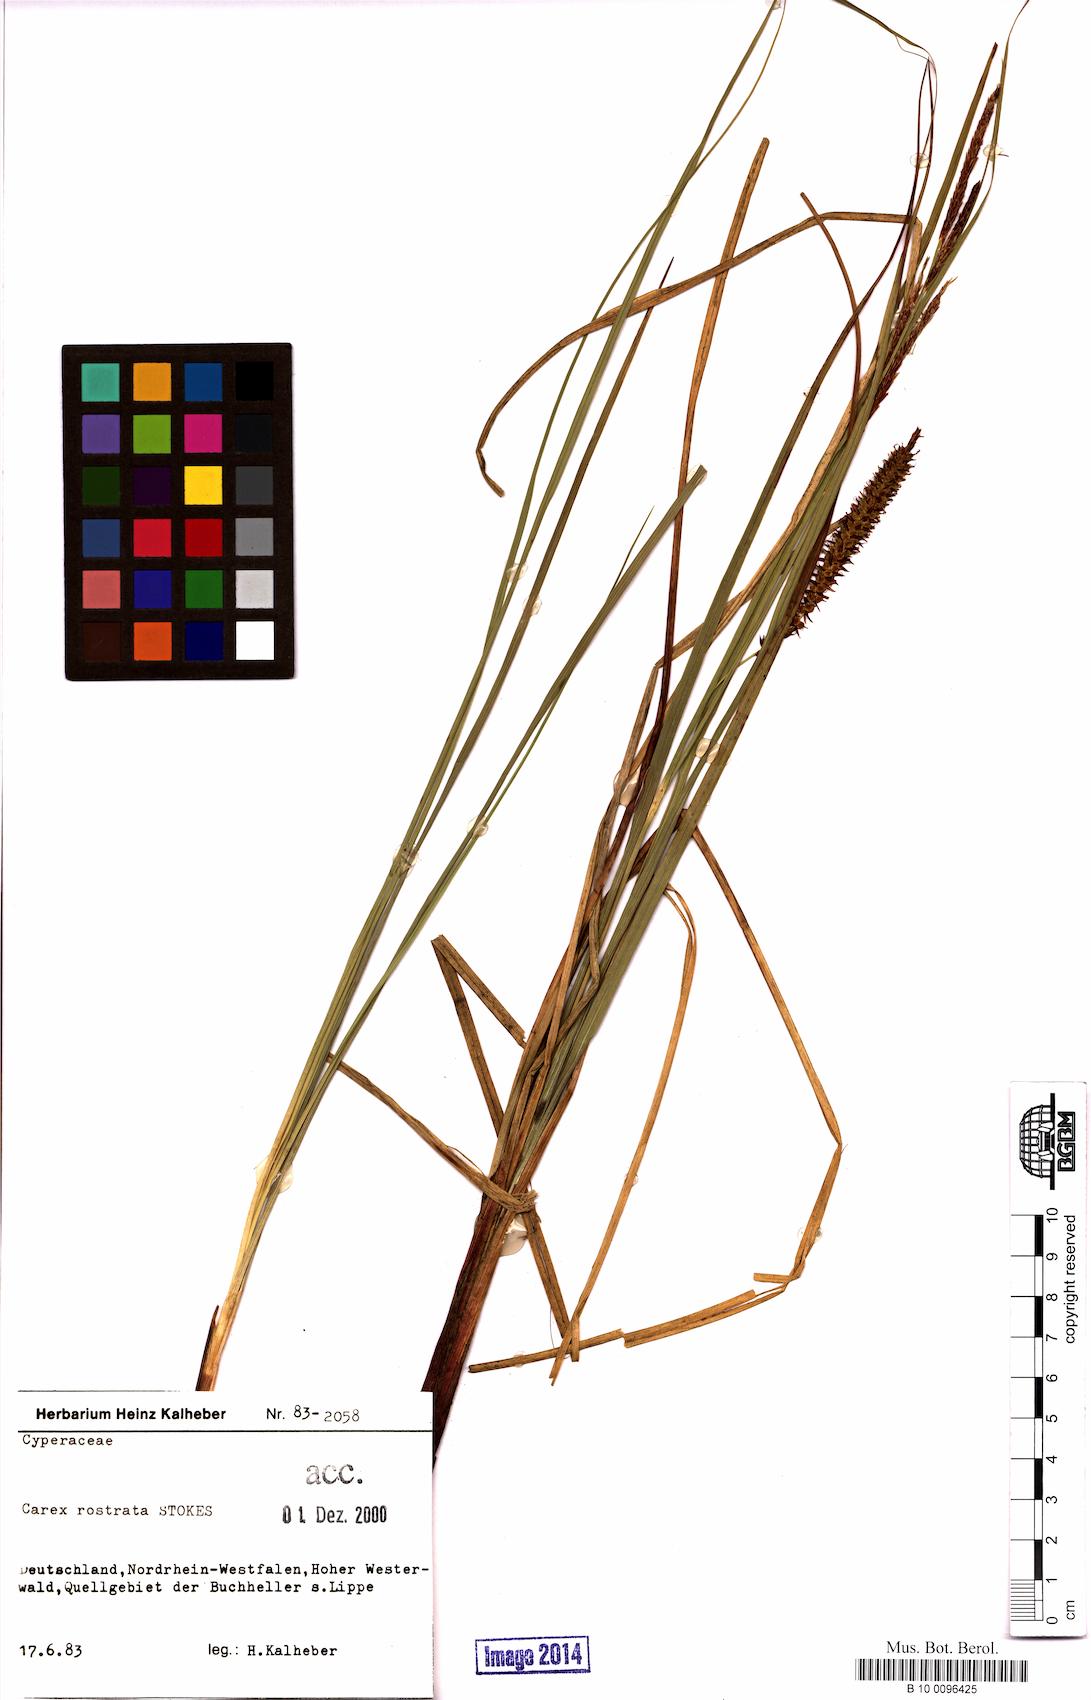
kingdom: Plantae
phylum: Tracheophyta
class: Liliopsida
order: Poales
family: Cyperaceae
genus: Carex
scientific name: Carex rostrata
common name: Bottle sedge
